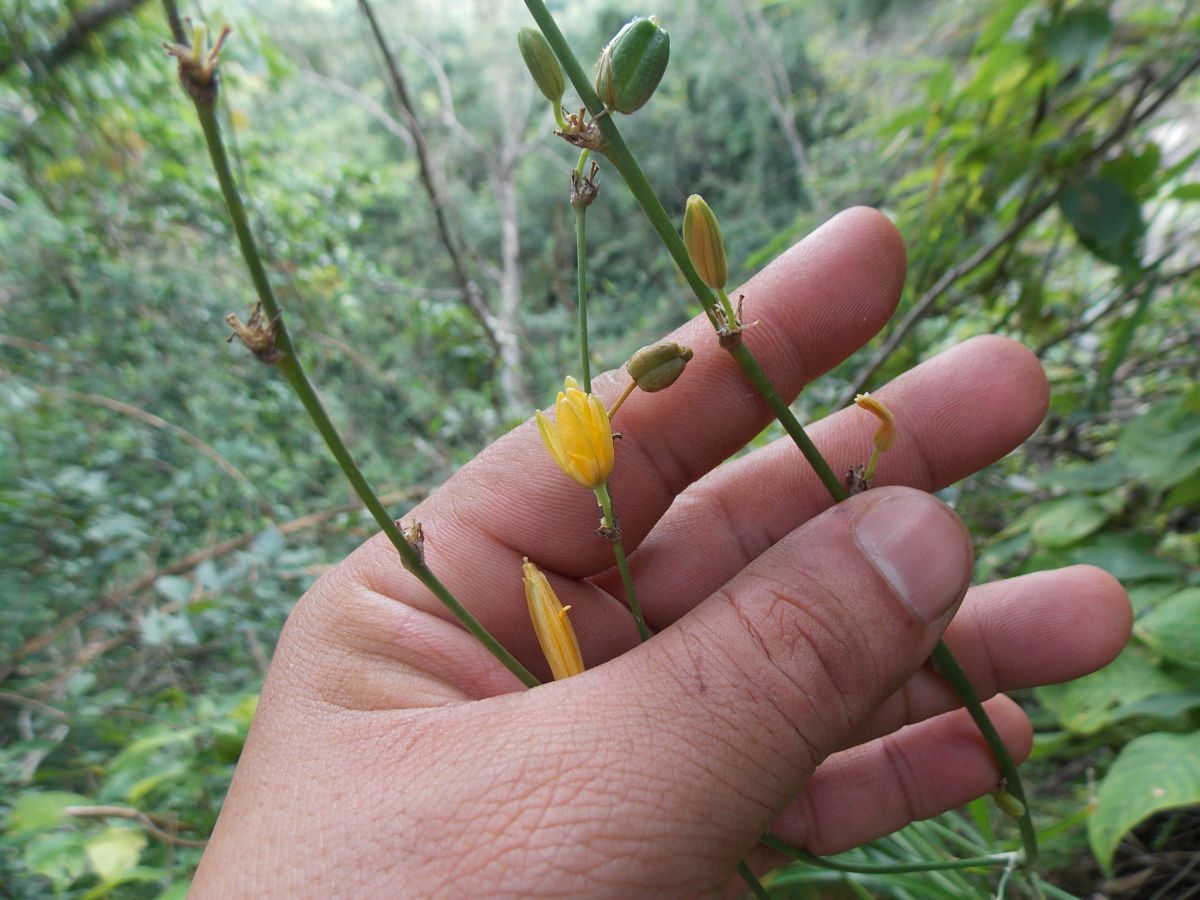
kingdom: Plantae
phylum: Tracheophyta
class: Liliopsida
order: Asparagales
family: Asparagaceae
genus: Echeandia
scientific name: Echeandia skinneri
